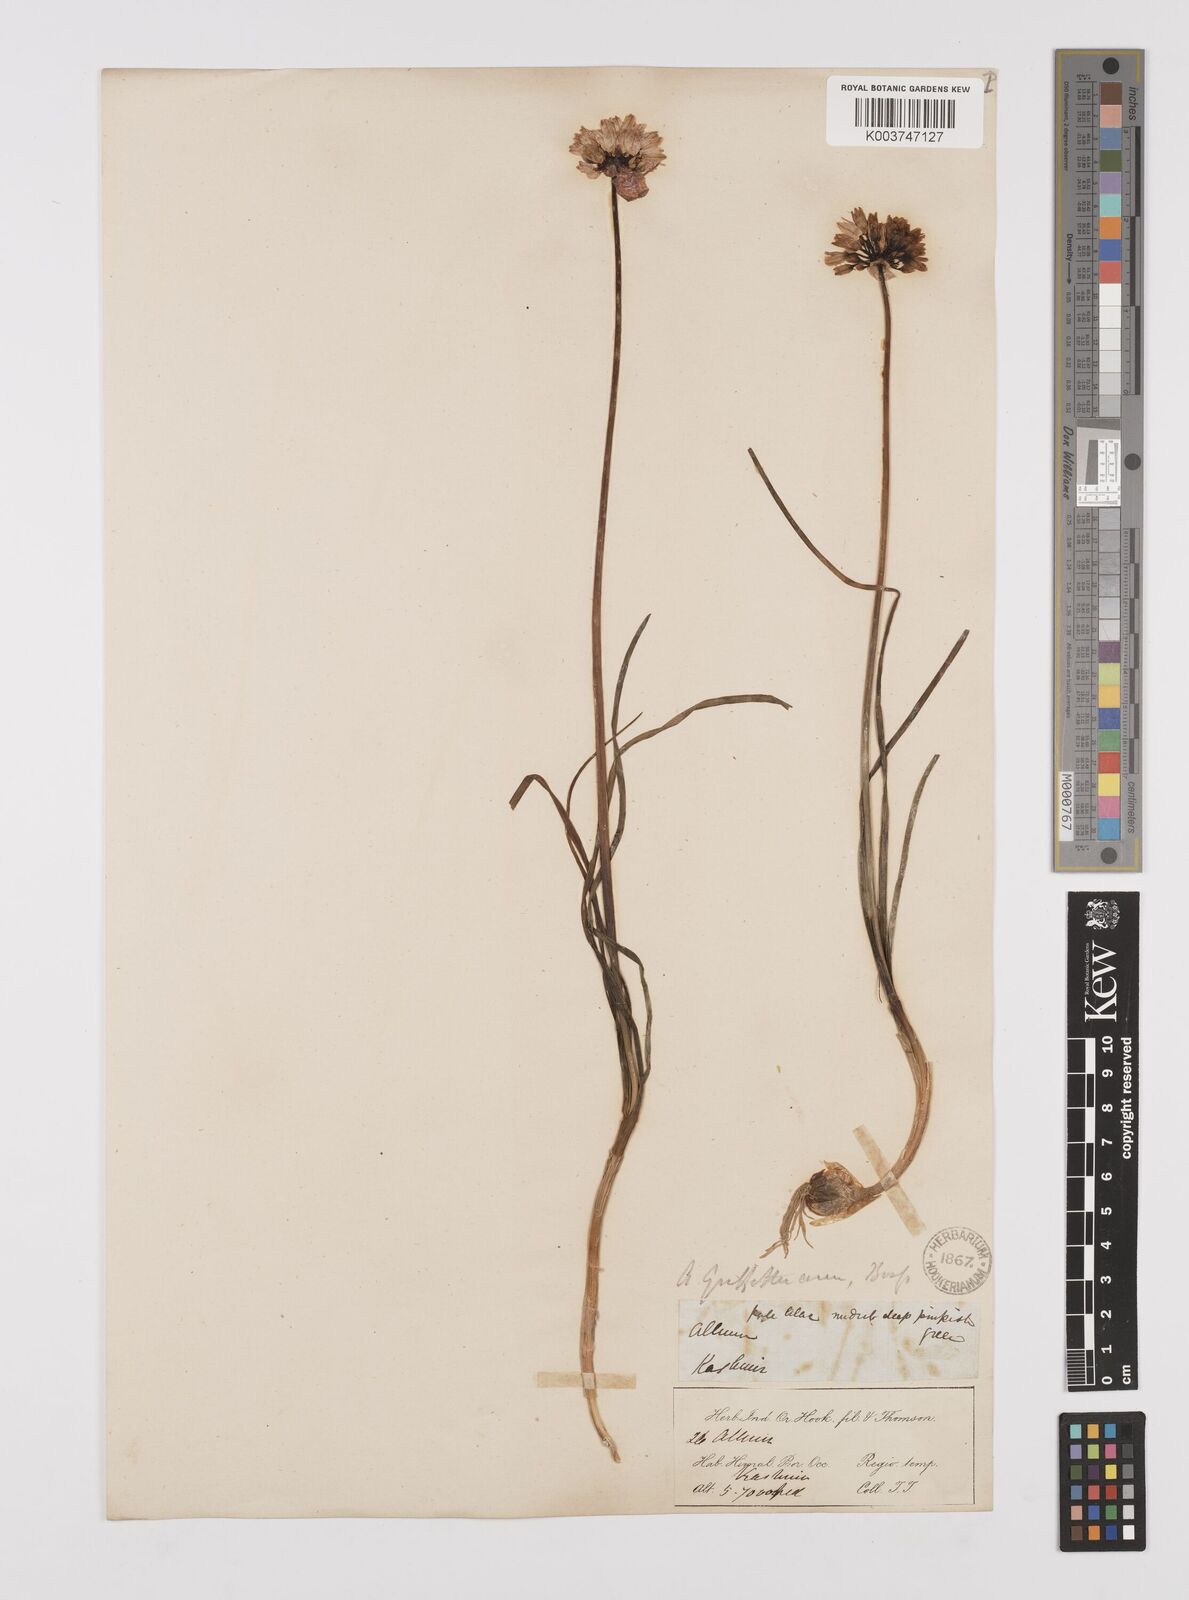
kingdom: Plantae
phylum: Tracheophyta
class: Liliopsida
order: Asparagales
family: Amaryllidaceae
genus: Allium
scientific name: Allium griffithianum
